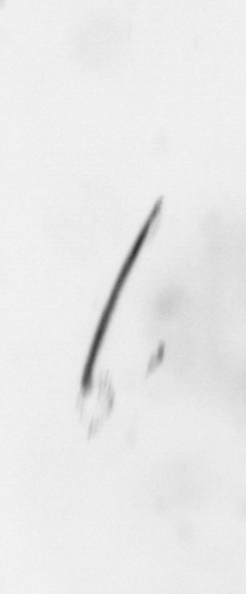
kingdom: Chromista
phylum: Ochrophyta
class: Bacillariophyceae
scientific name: Bacillariophyceae
